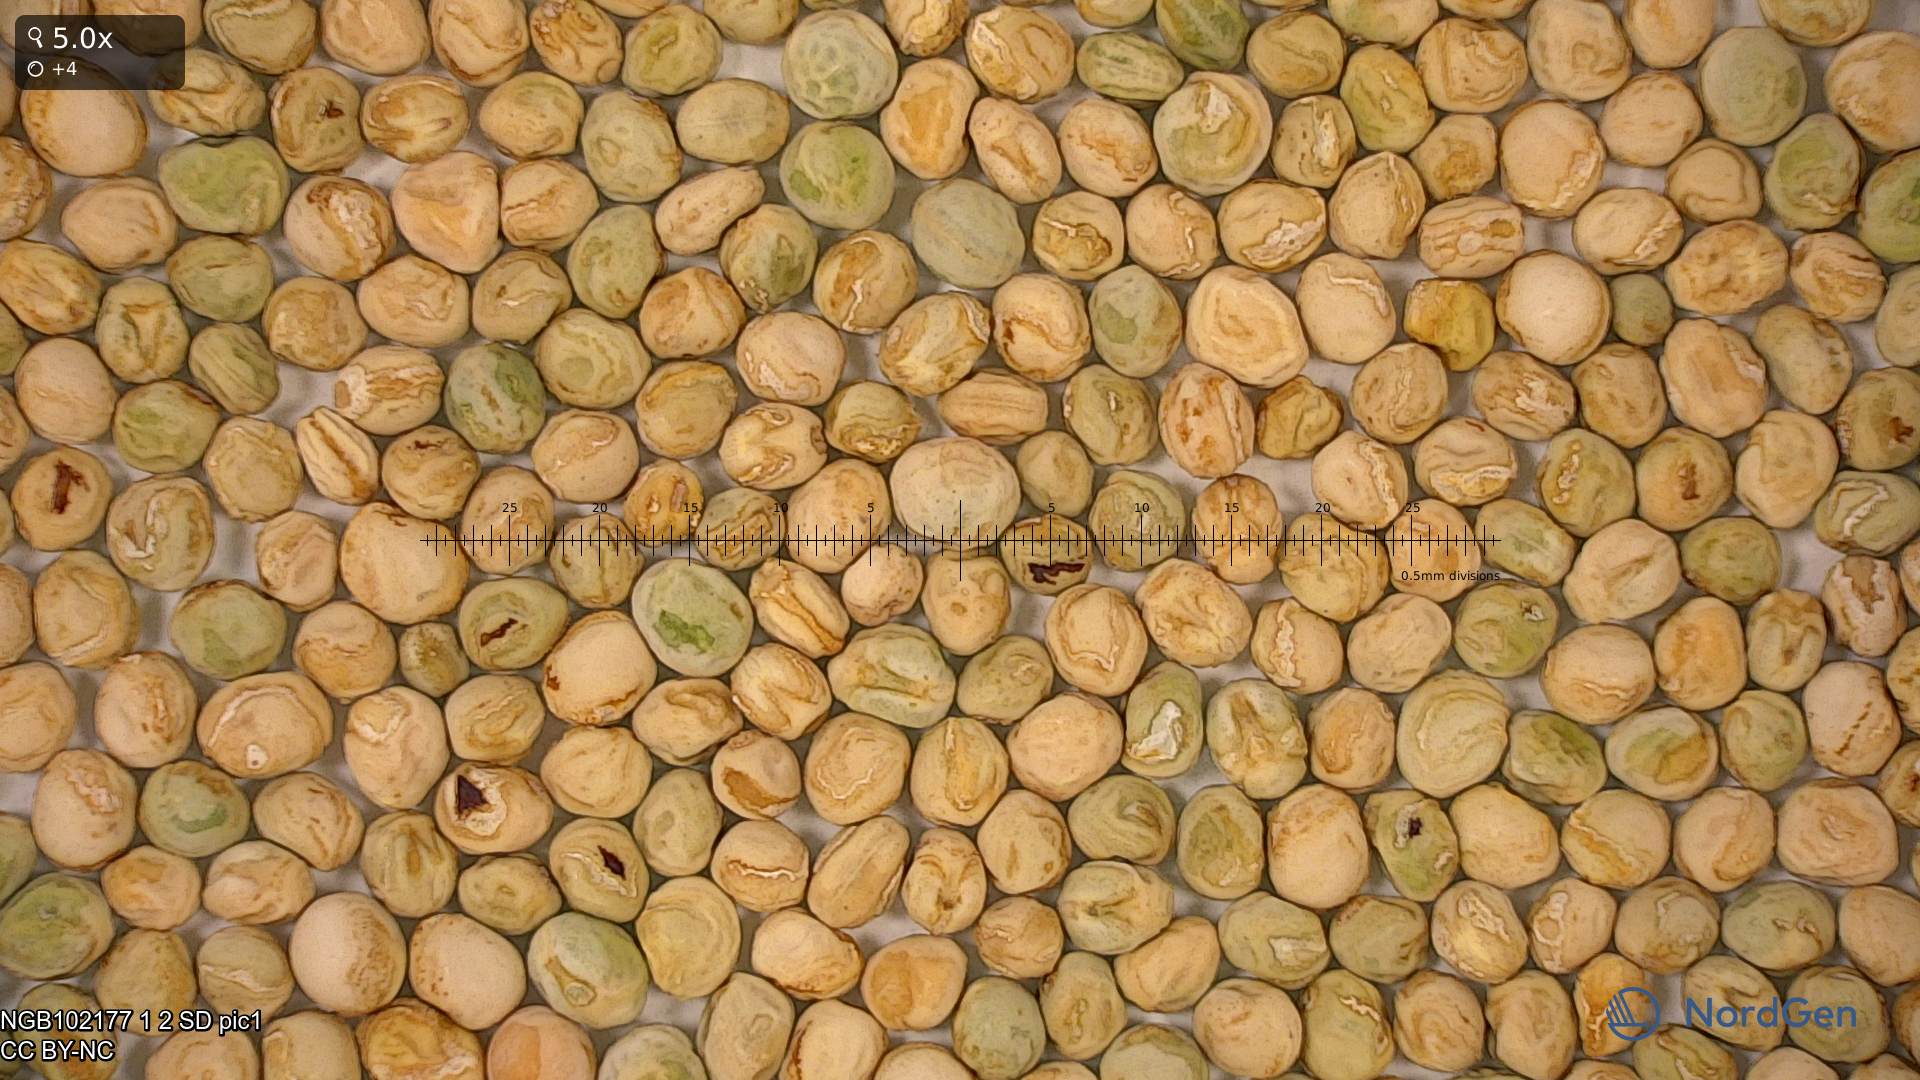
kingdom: Plantae
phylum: Tracheophyta
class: Magnoliopsida
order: Fabales
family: Fabaceae
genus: Lathyrus
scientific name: Lathyrus oleraceus
